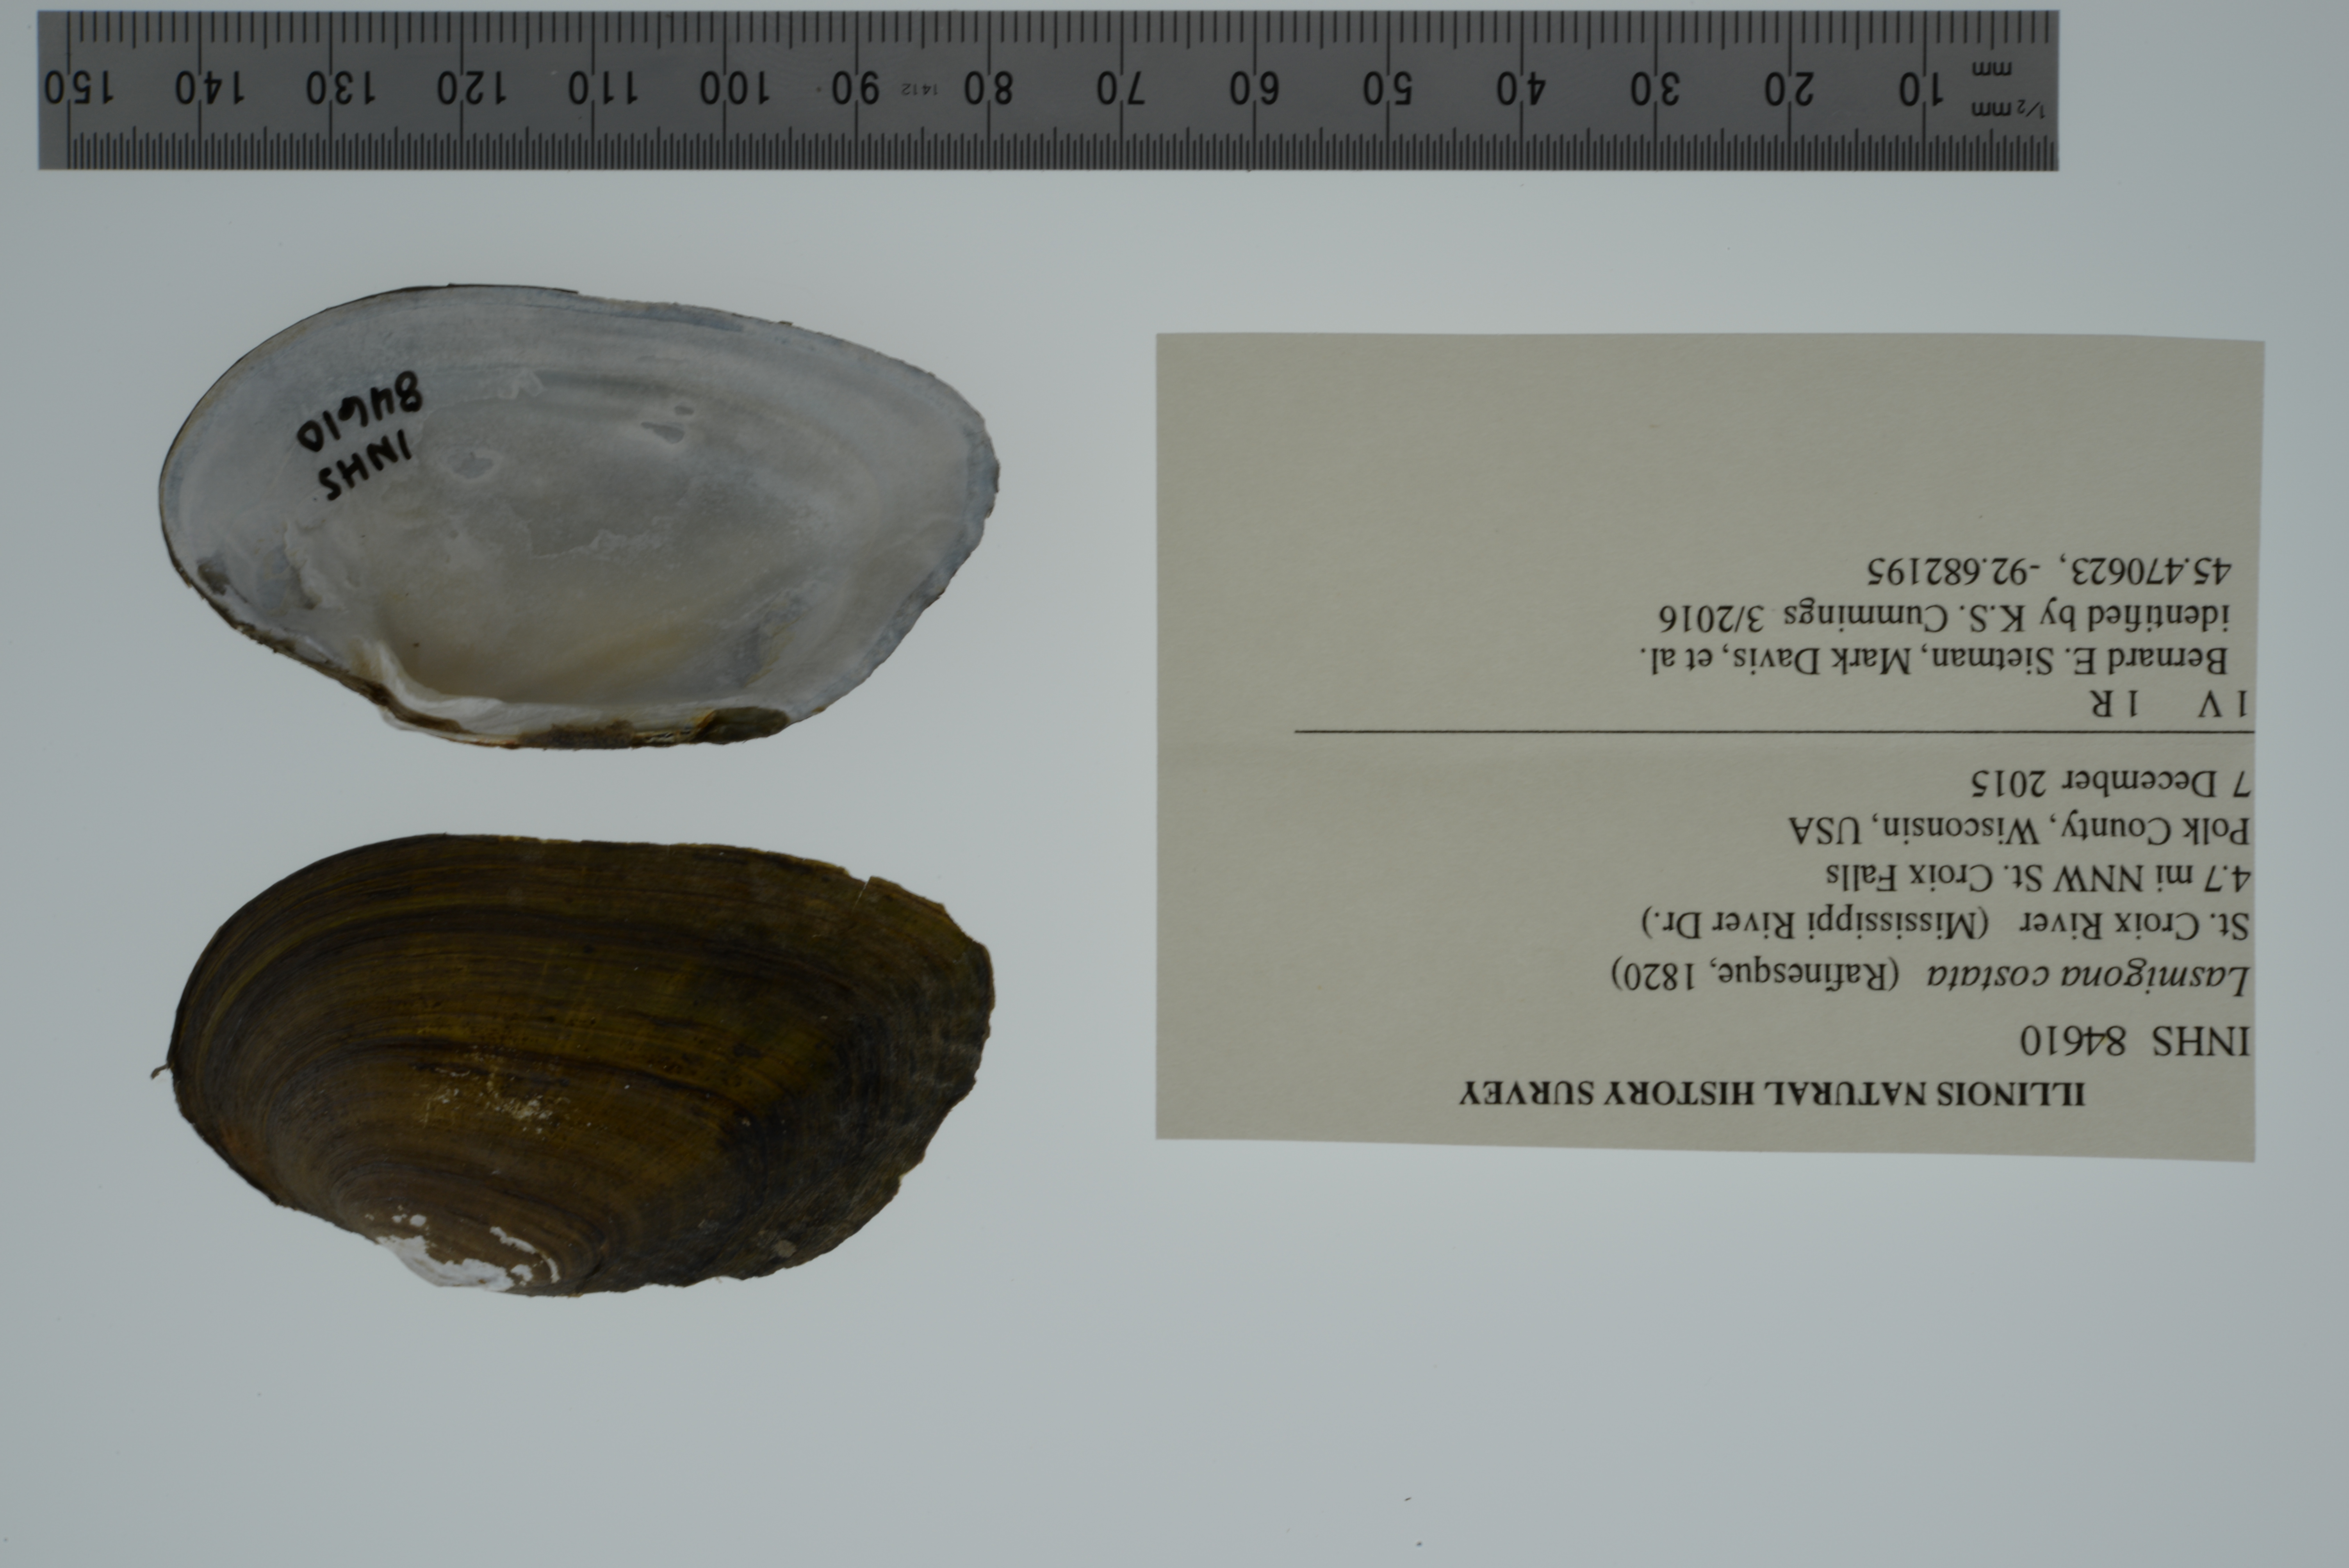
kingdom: Animalia
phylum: Mollusca
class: Bivalvia
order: Unionida
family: Unionidae
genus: Lasmigona
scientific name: Lasmigona costata
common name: Flutedshell
